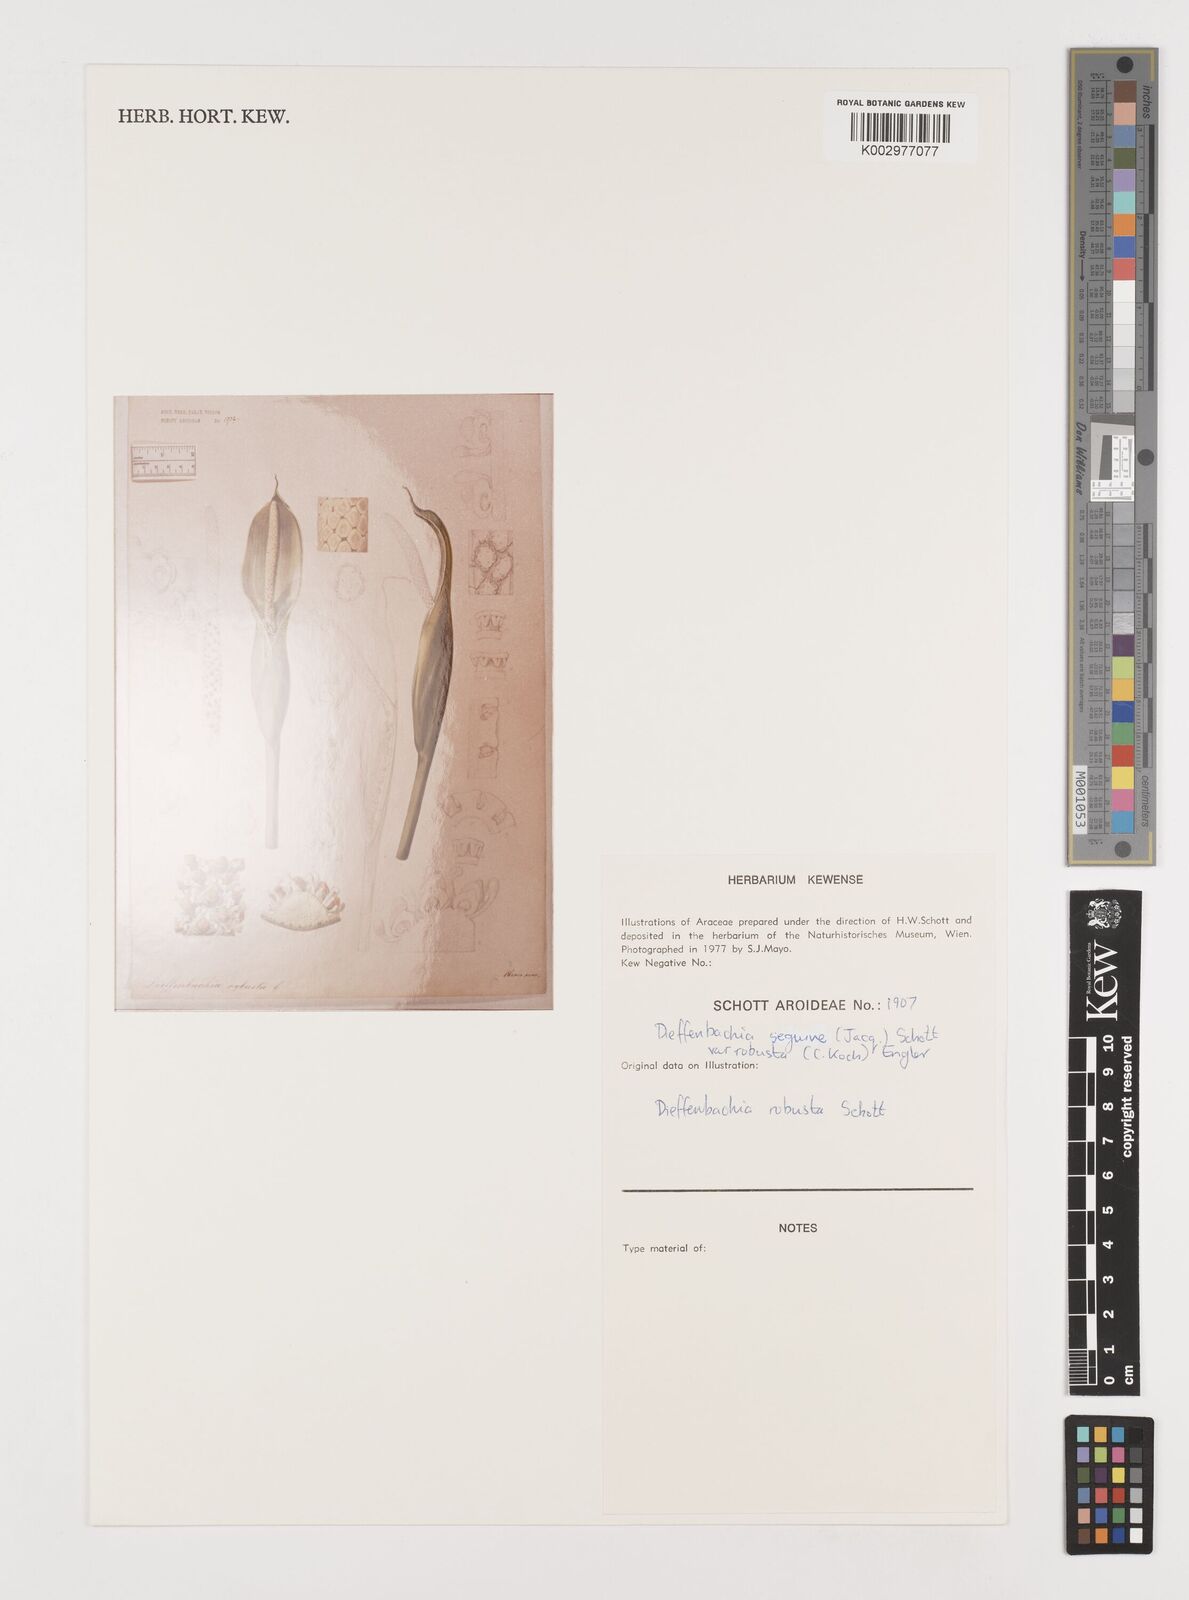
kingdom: Plantae
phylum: Tracheophyta
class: Liliopsida
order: Alismatales
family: Araceae
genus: Dieffenbachia
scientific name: Dieffenbachia seguine
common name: Dumbcane
